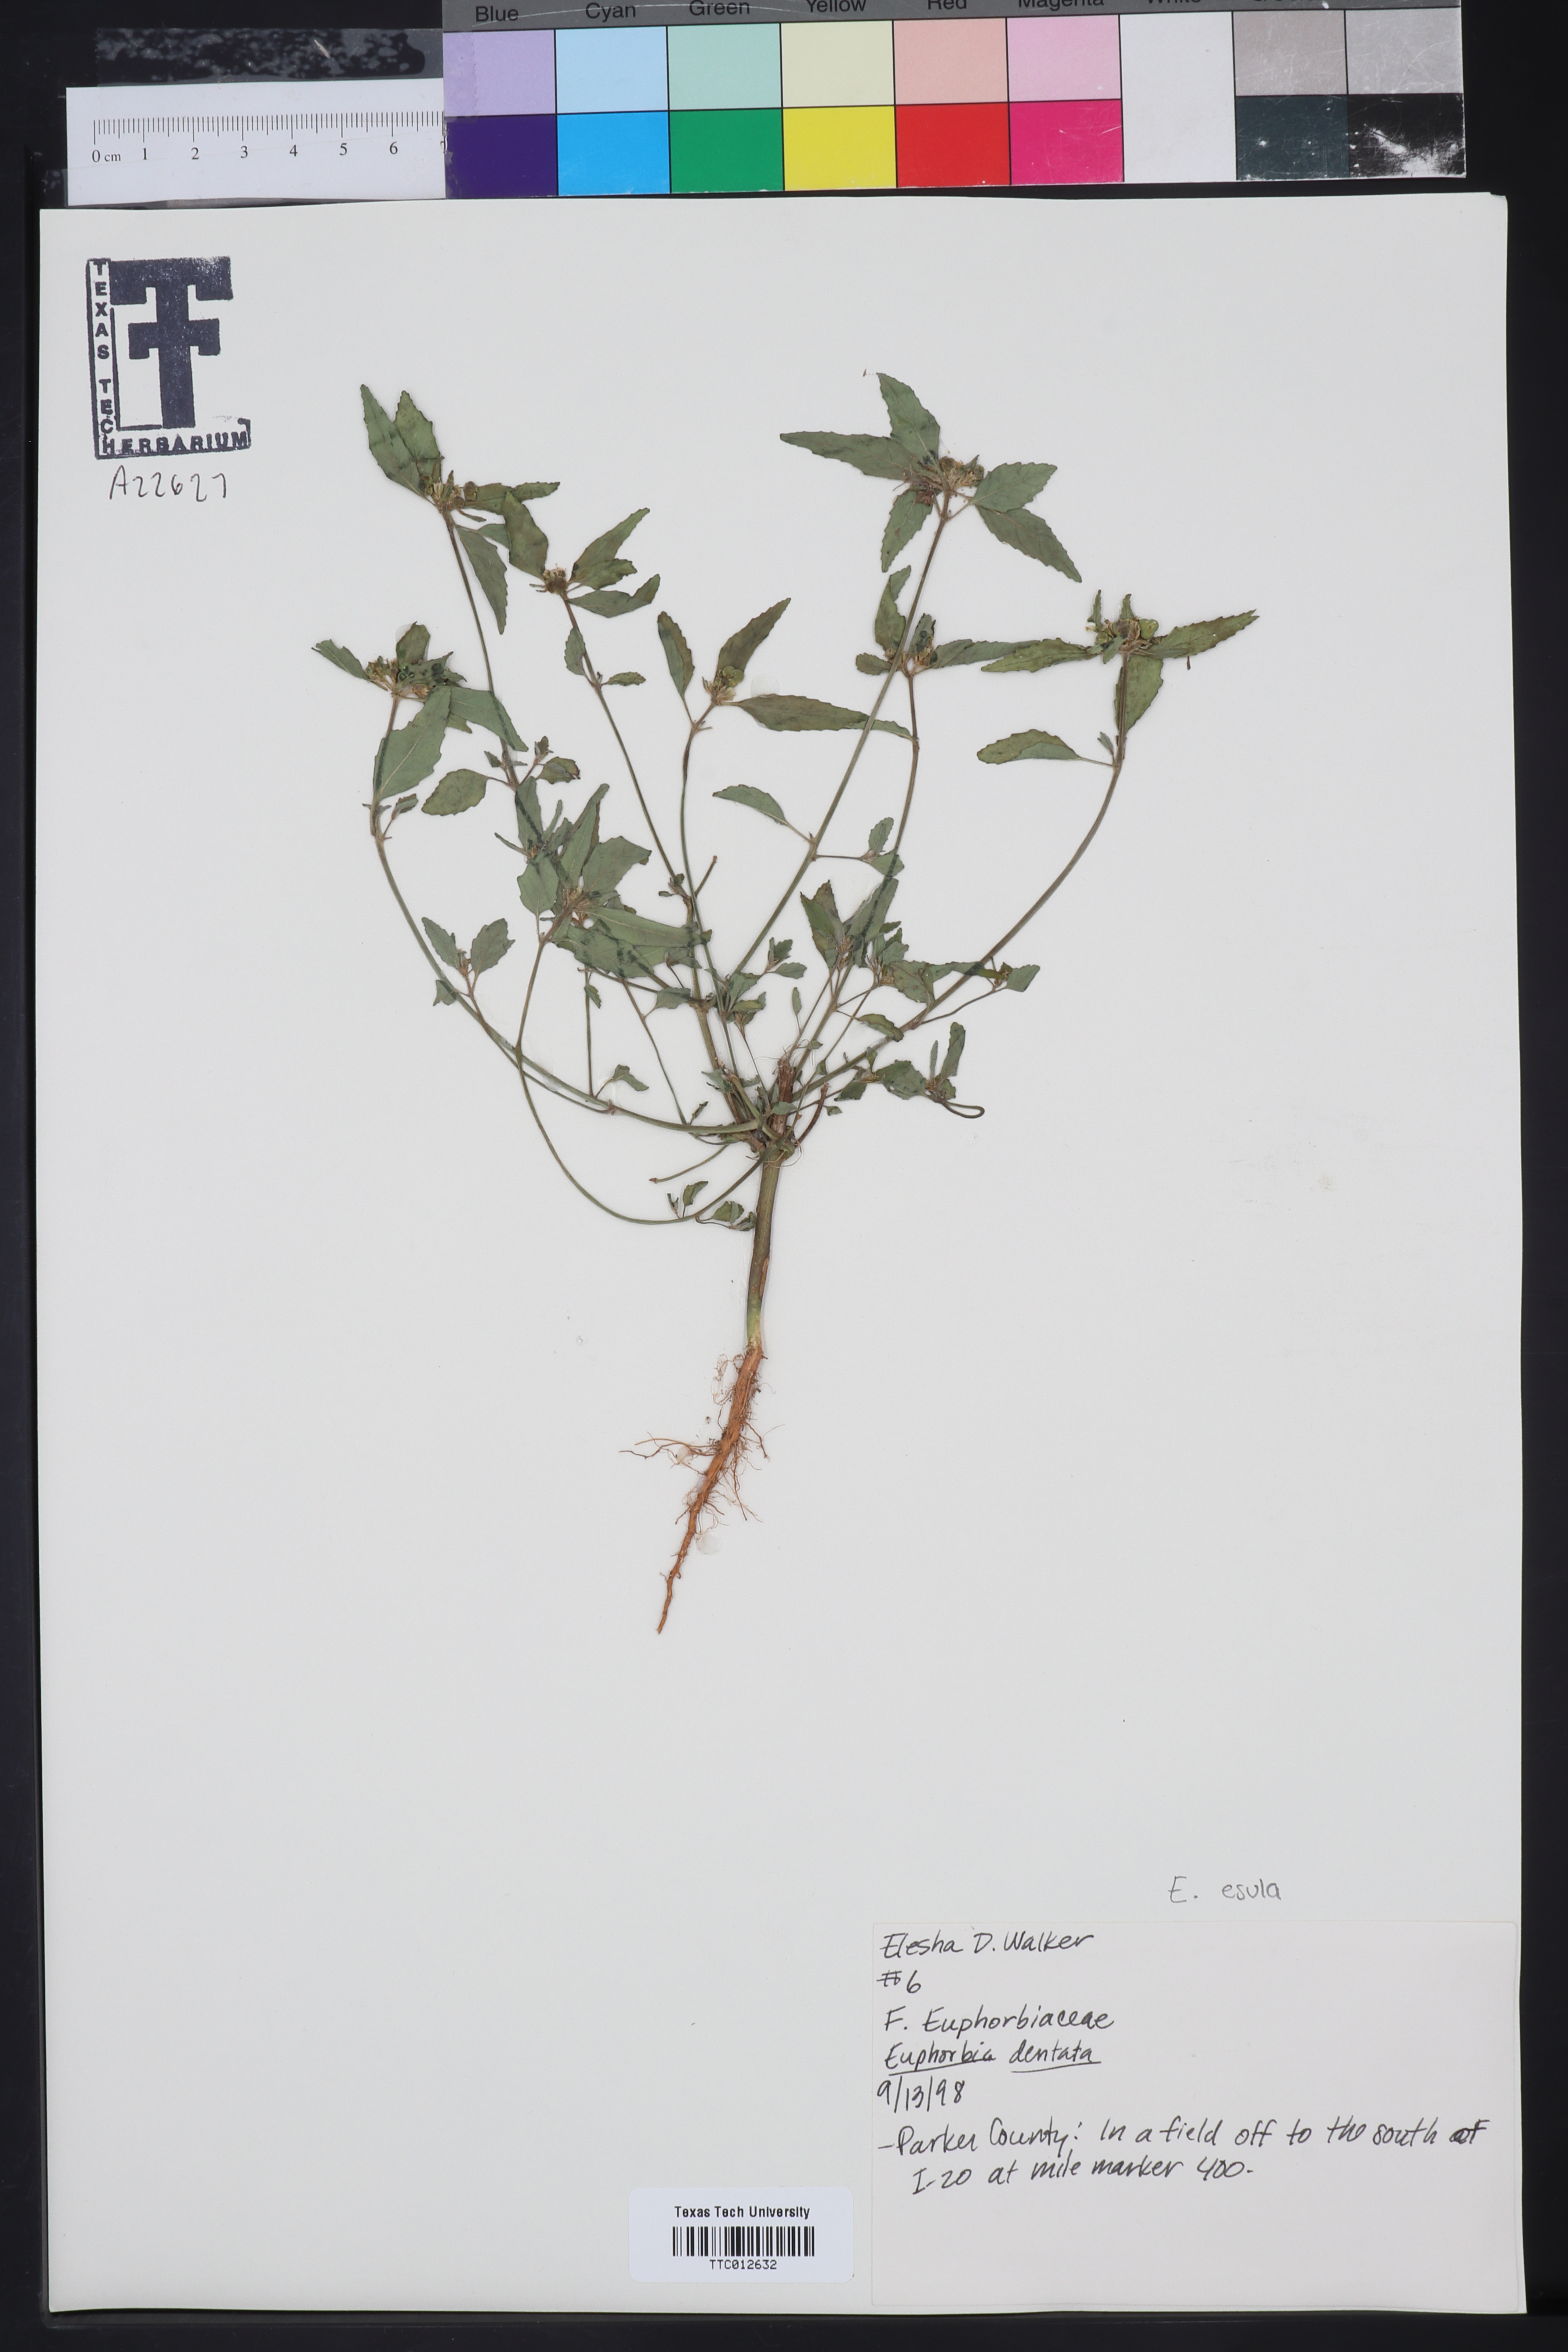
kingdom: Plantae
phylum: Tracheophyta
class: Magnoliopsida
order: Malpighiales
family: Euphorbiaceae
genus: Euphorbia
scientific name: Euphorbia dentata
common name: Dentate spurge
